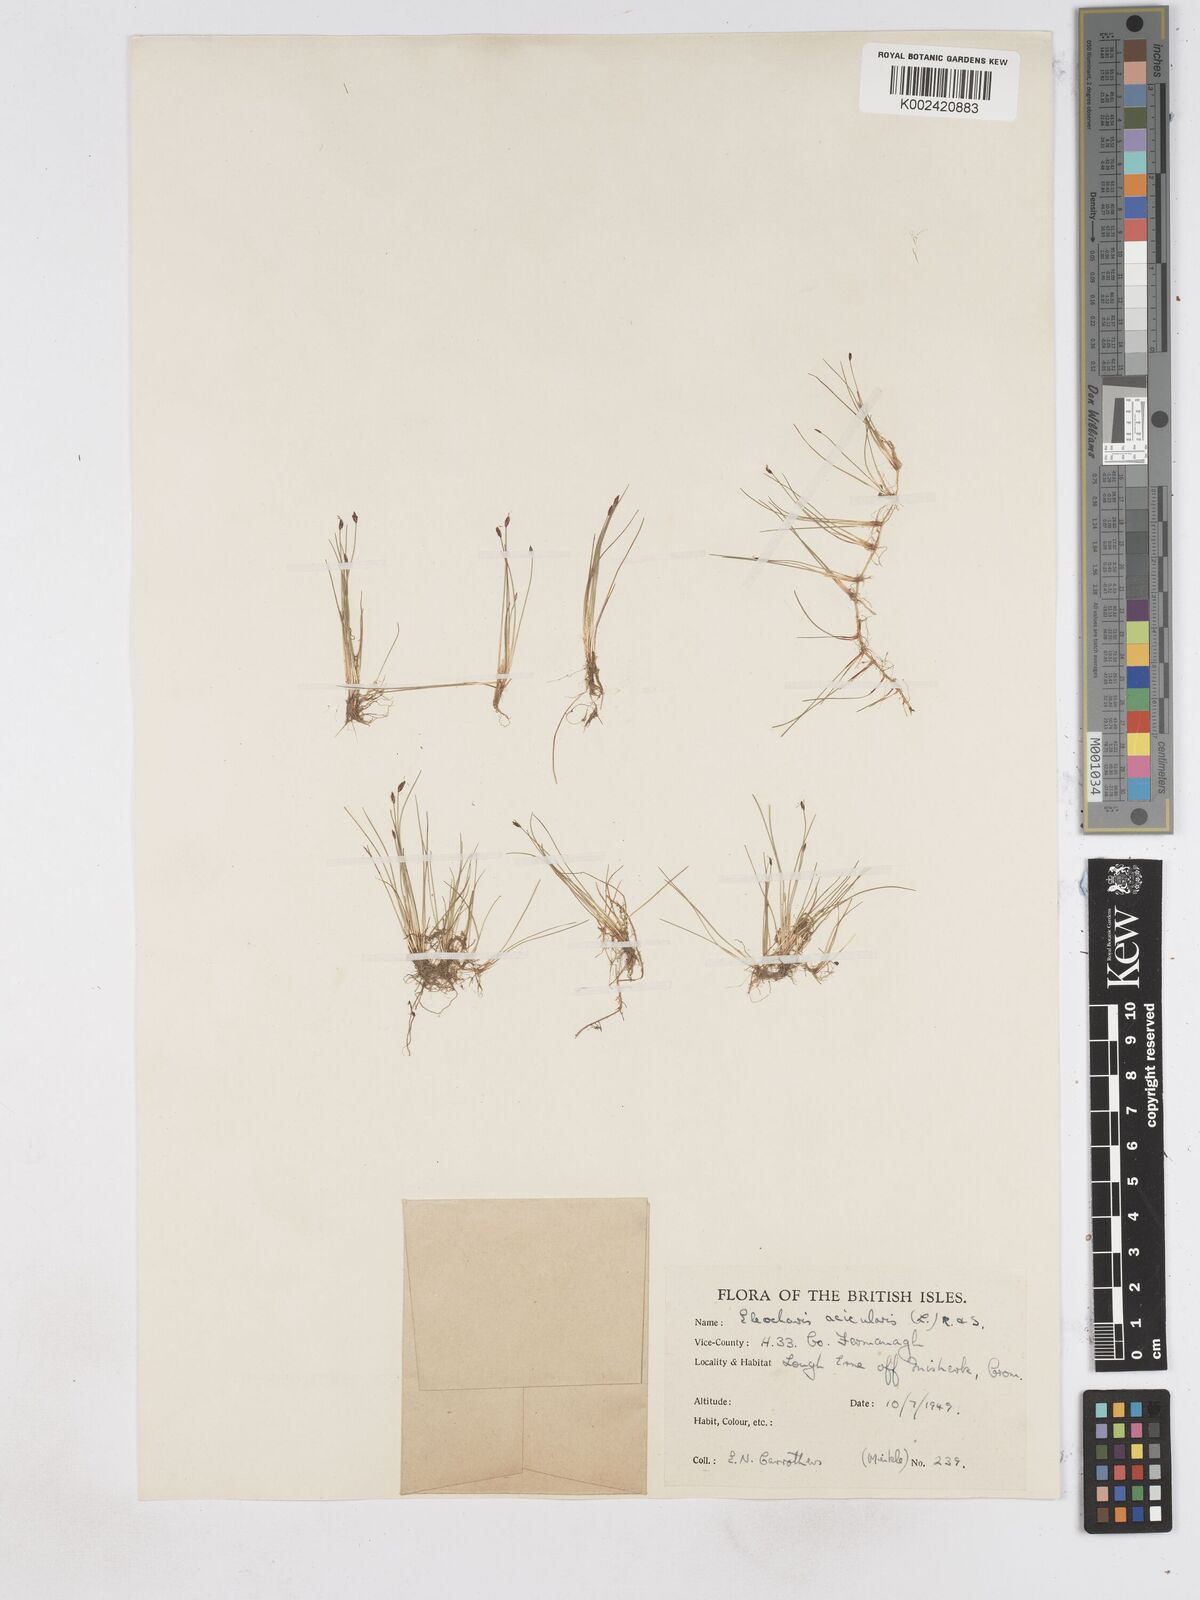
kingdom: Plantae
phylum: Tracheophyta
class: Liliopsida
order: Poales
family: Cyperaceae
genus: Eleocharis
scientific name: Eleocharis acicularis
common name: Needle spike-rush
